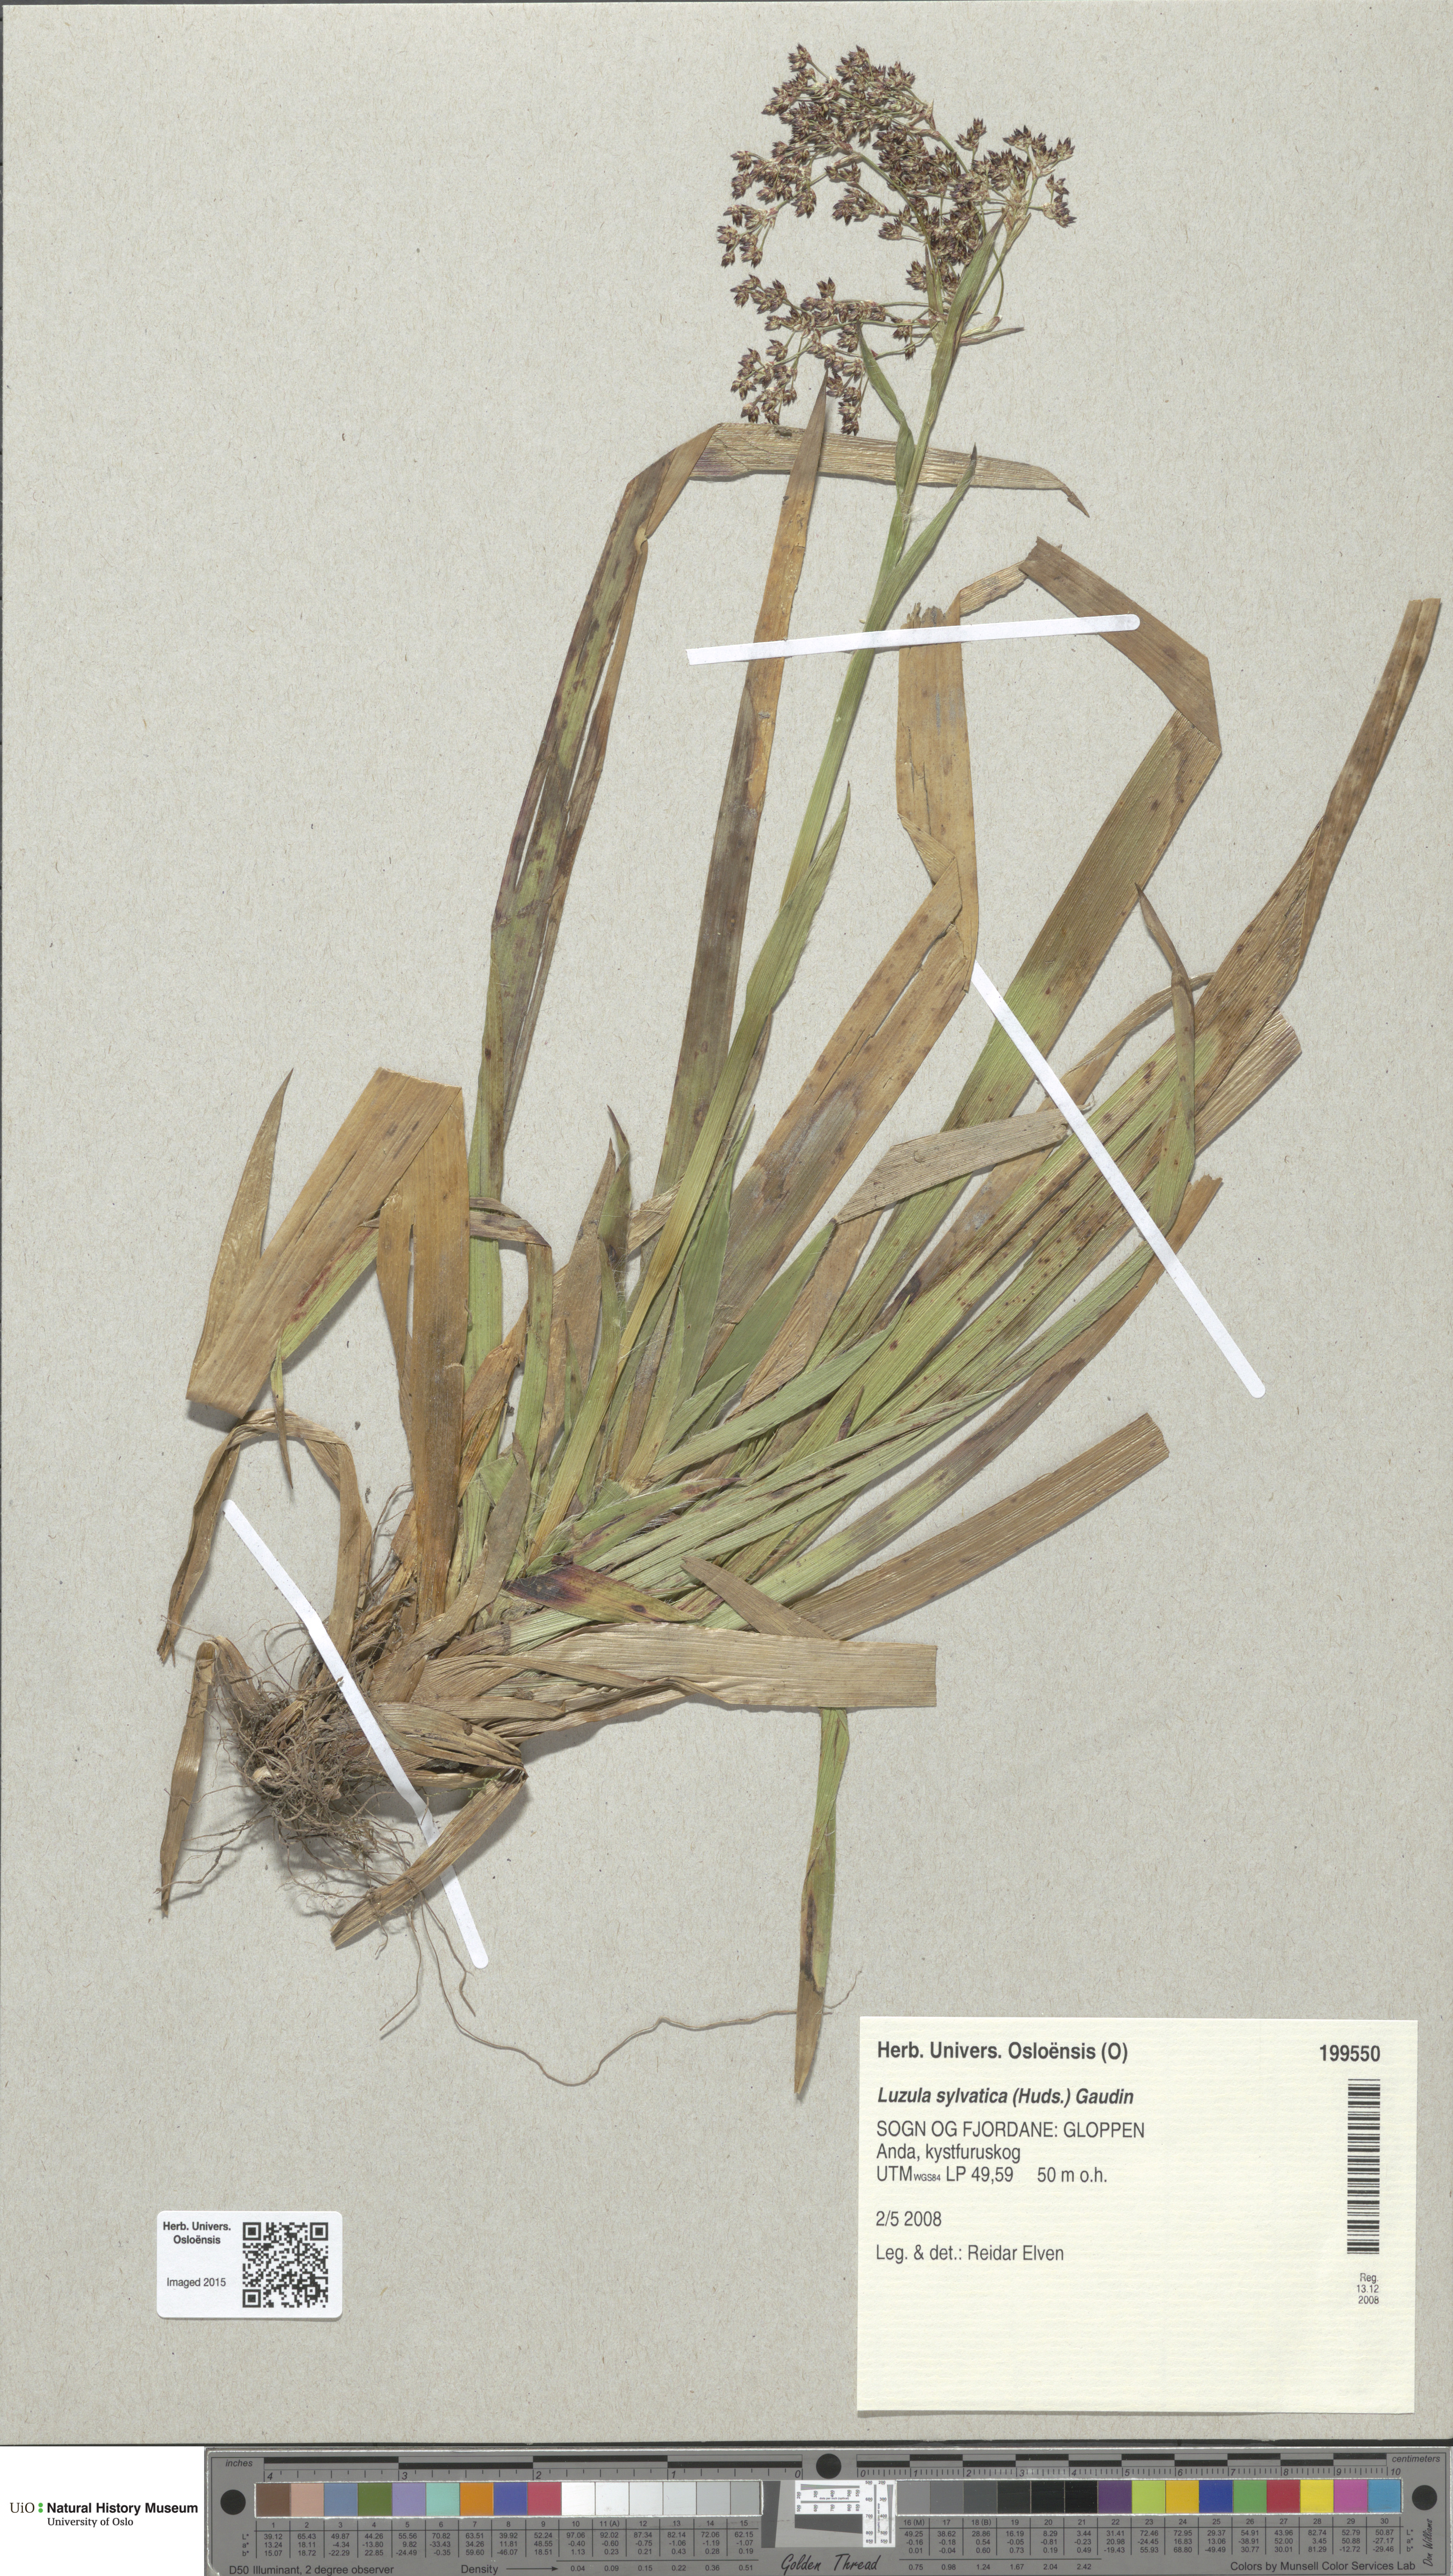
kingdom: Plantae
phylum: Tracheophyta
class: Liliopsida
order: Poales
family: Juncaceae
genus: Luzula
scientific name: Luzula sylvatica
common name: Great wood-rush
